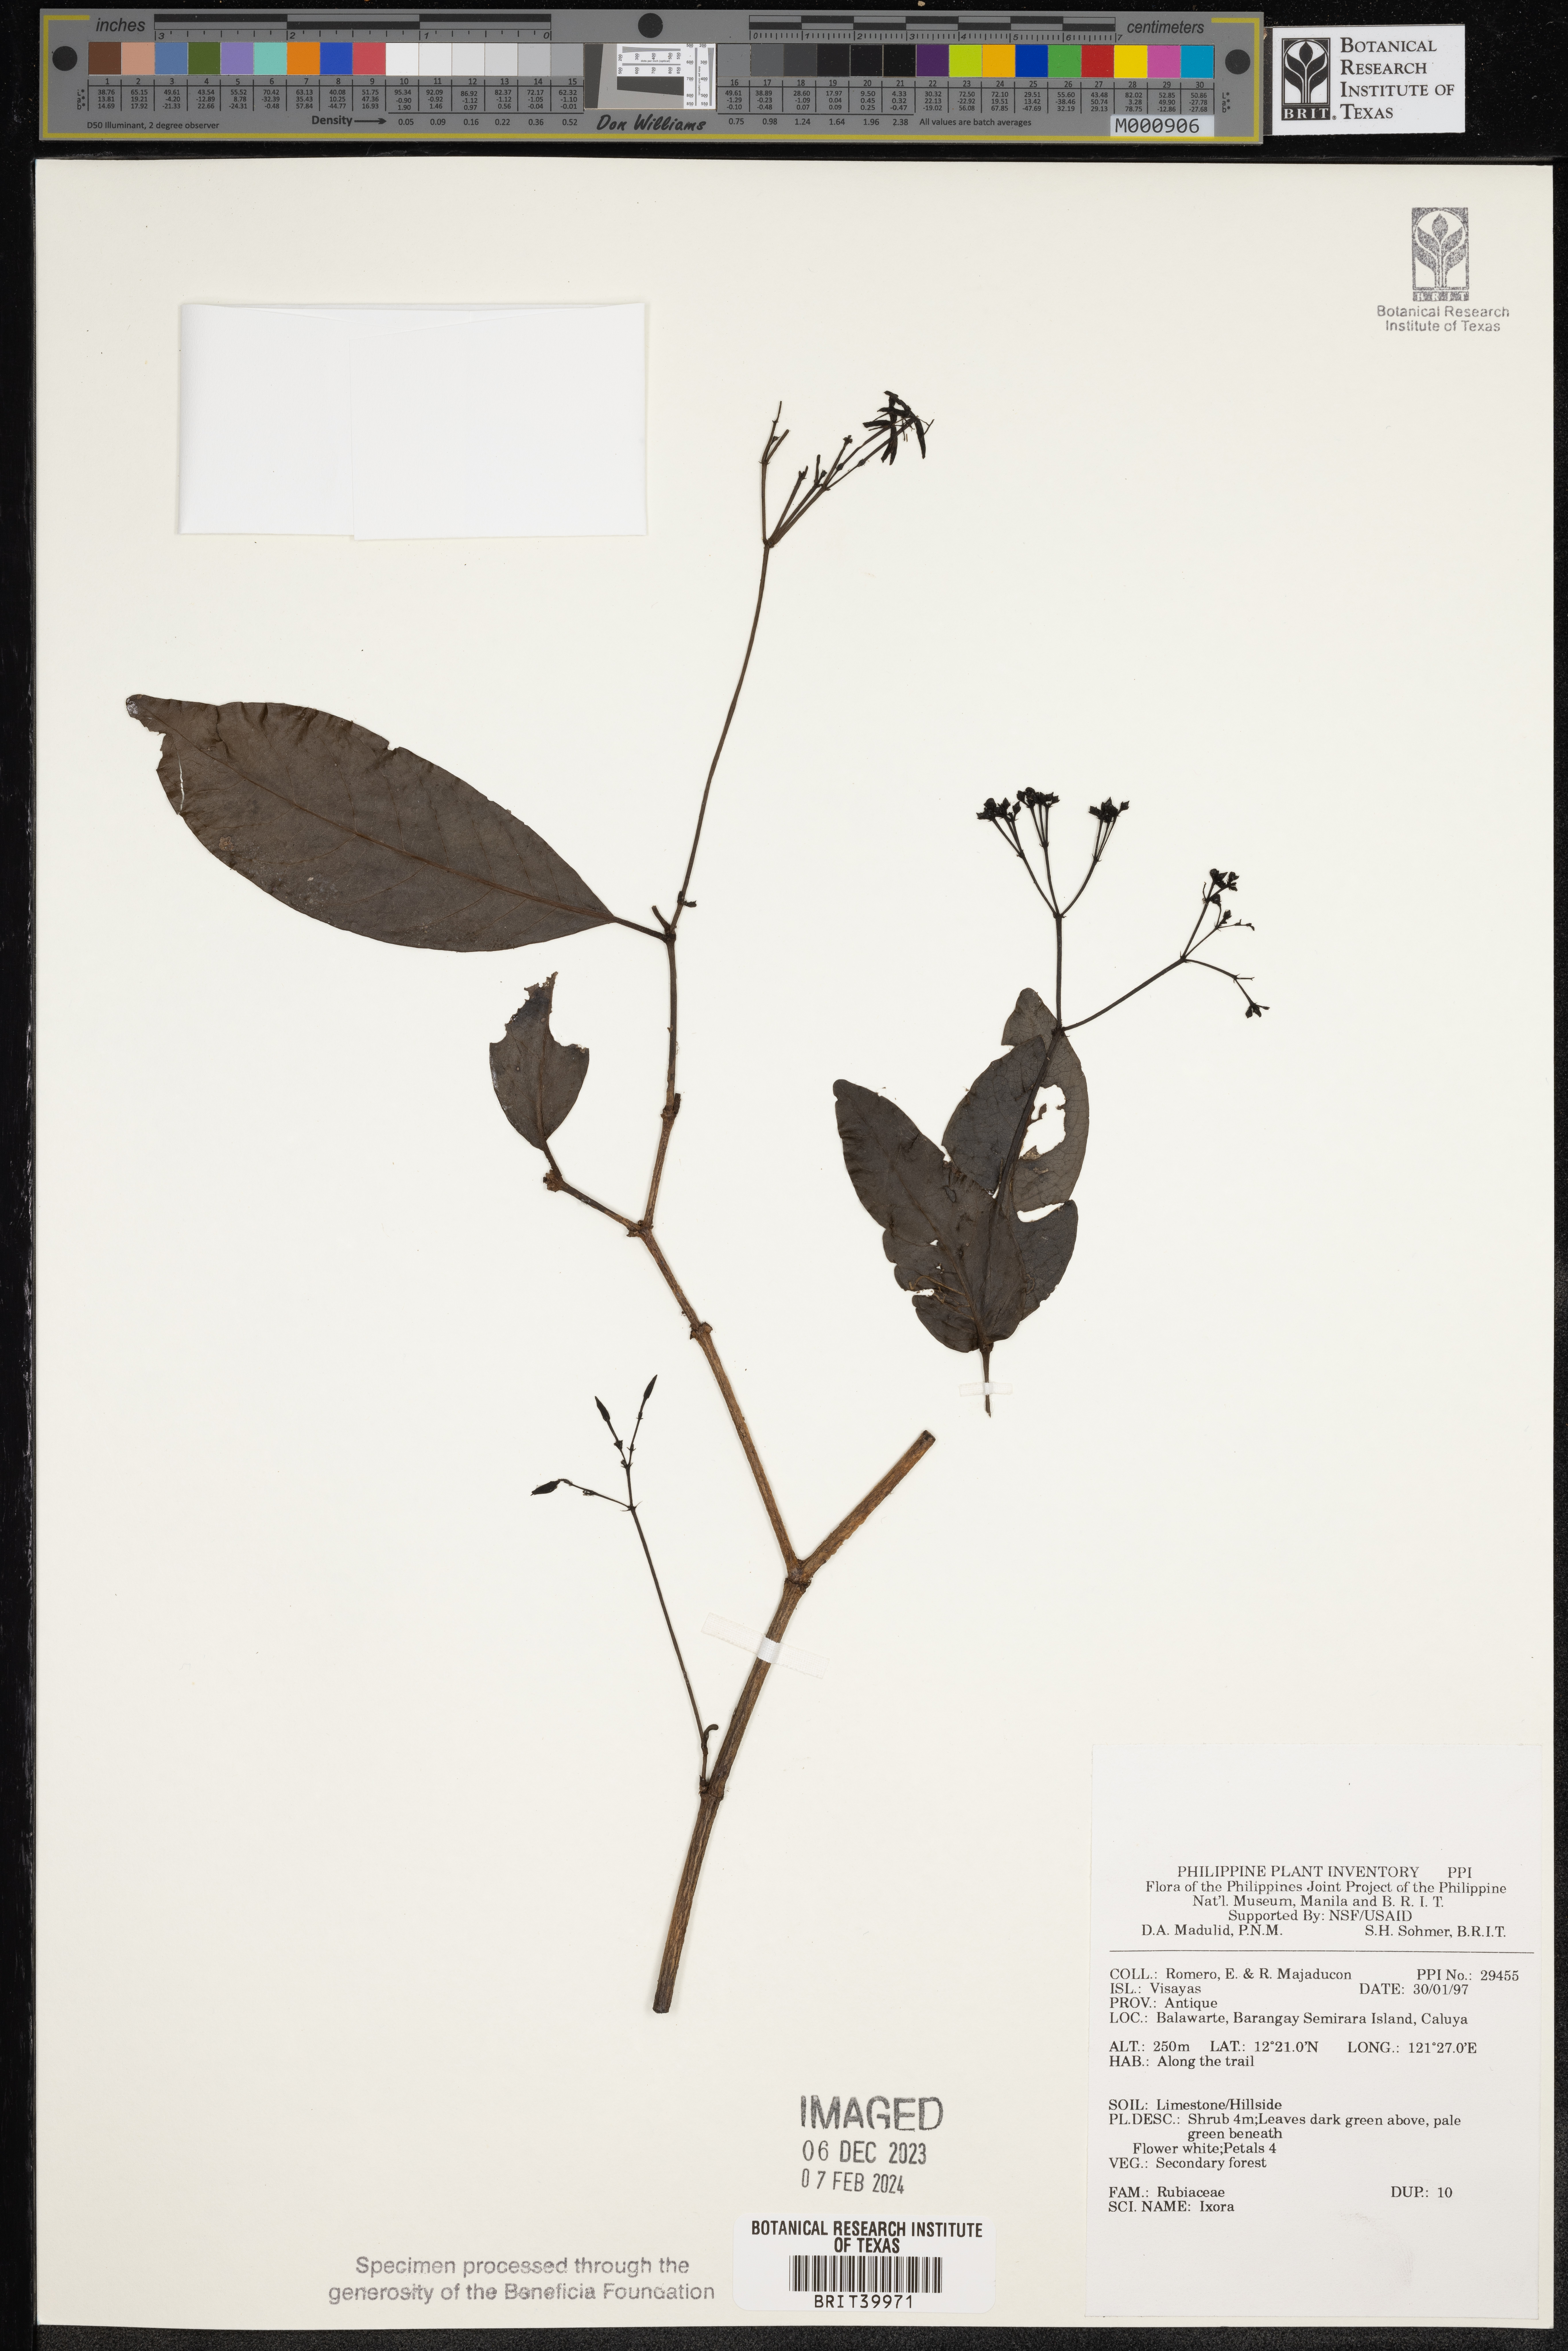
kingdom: Plantae
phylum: Tracheophyta
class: Magnoliopsida
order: Gentianales
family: Rubiaceae
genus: Ixora
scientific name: Ixora
